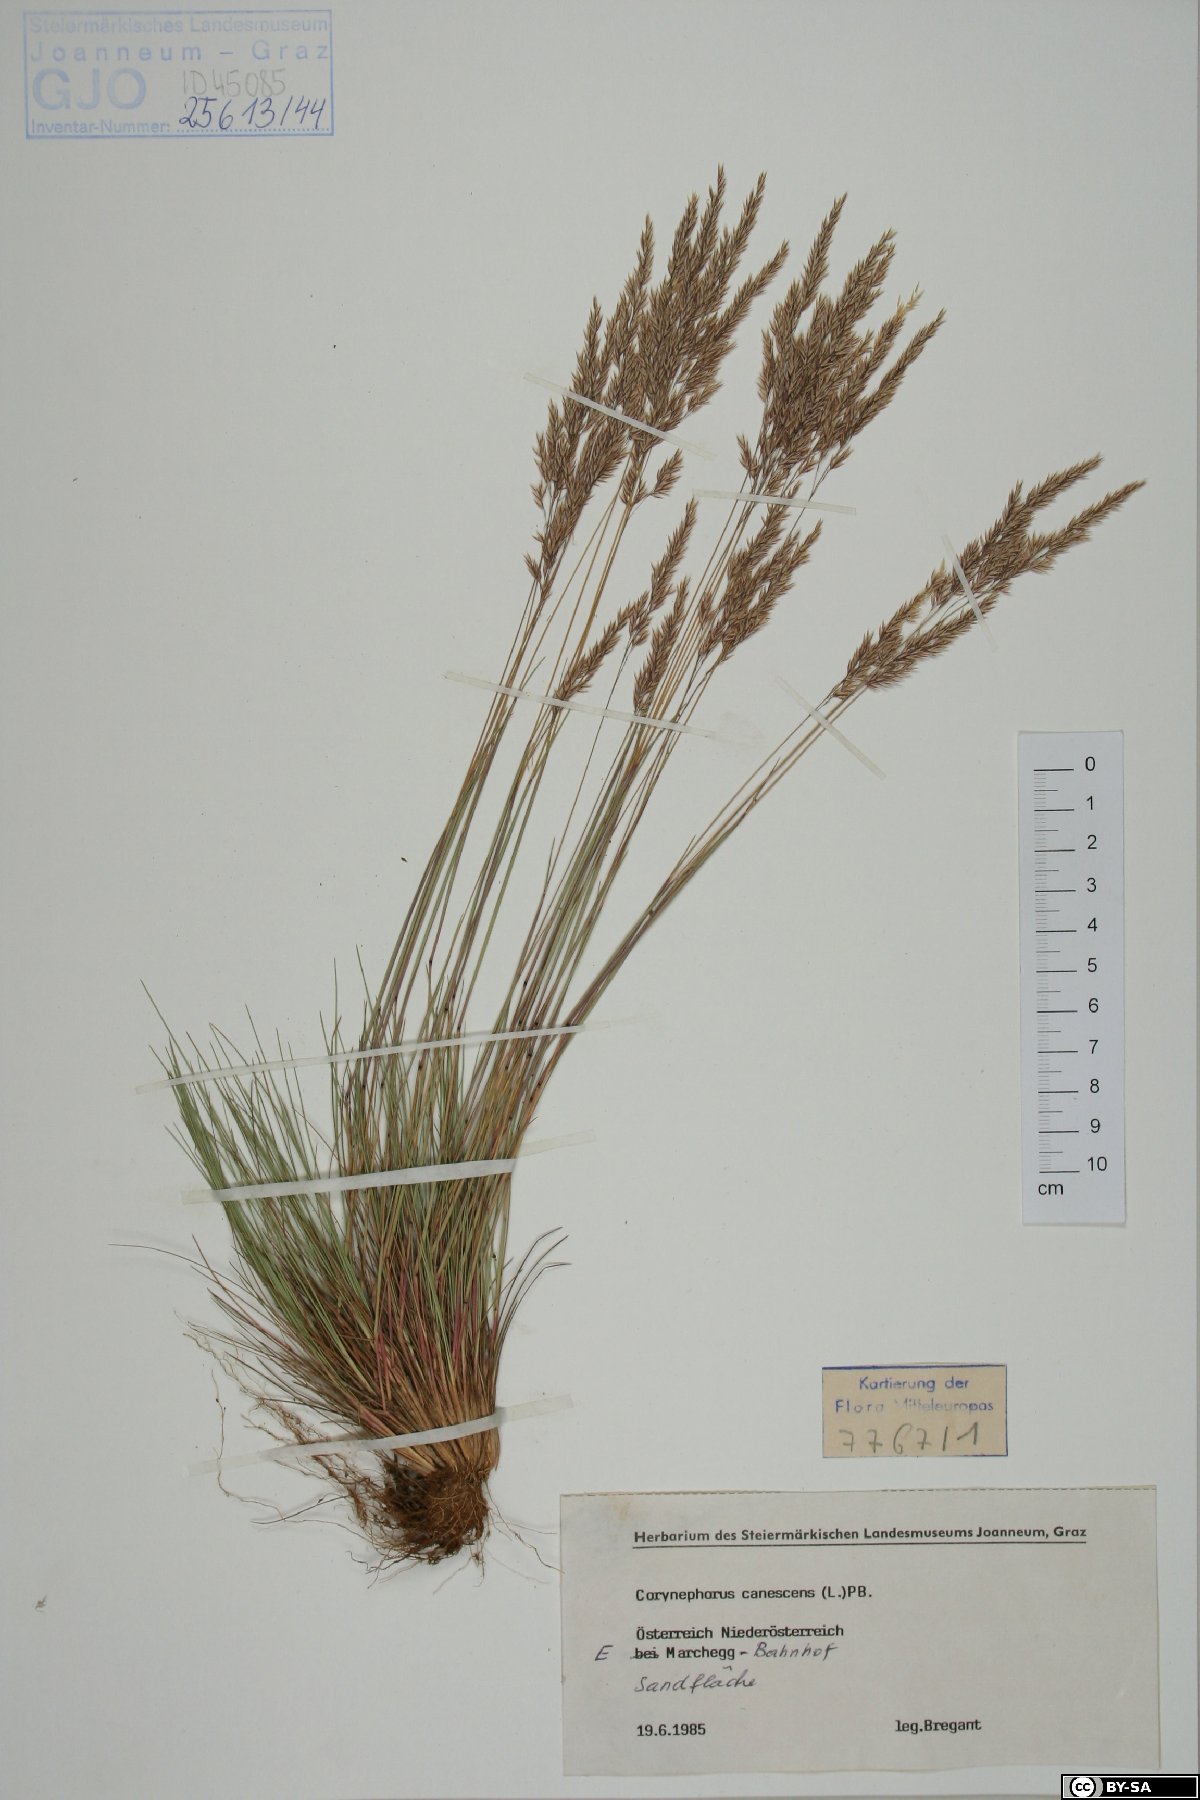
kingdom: Plantae
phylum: Tracheophyta
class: Liliopsida
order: Poales
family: Poaceae
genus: Corynephorus
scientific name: Corynephorus canescens
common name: Grey hair-grass
